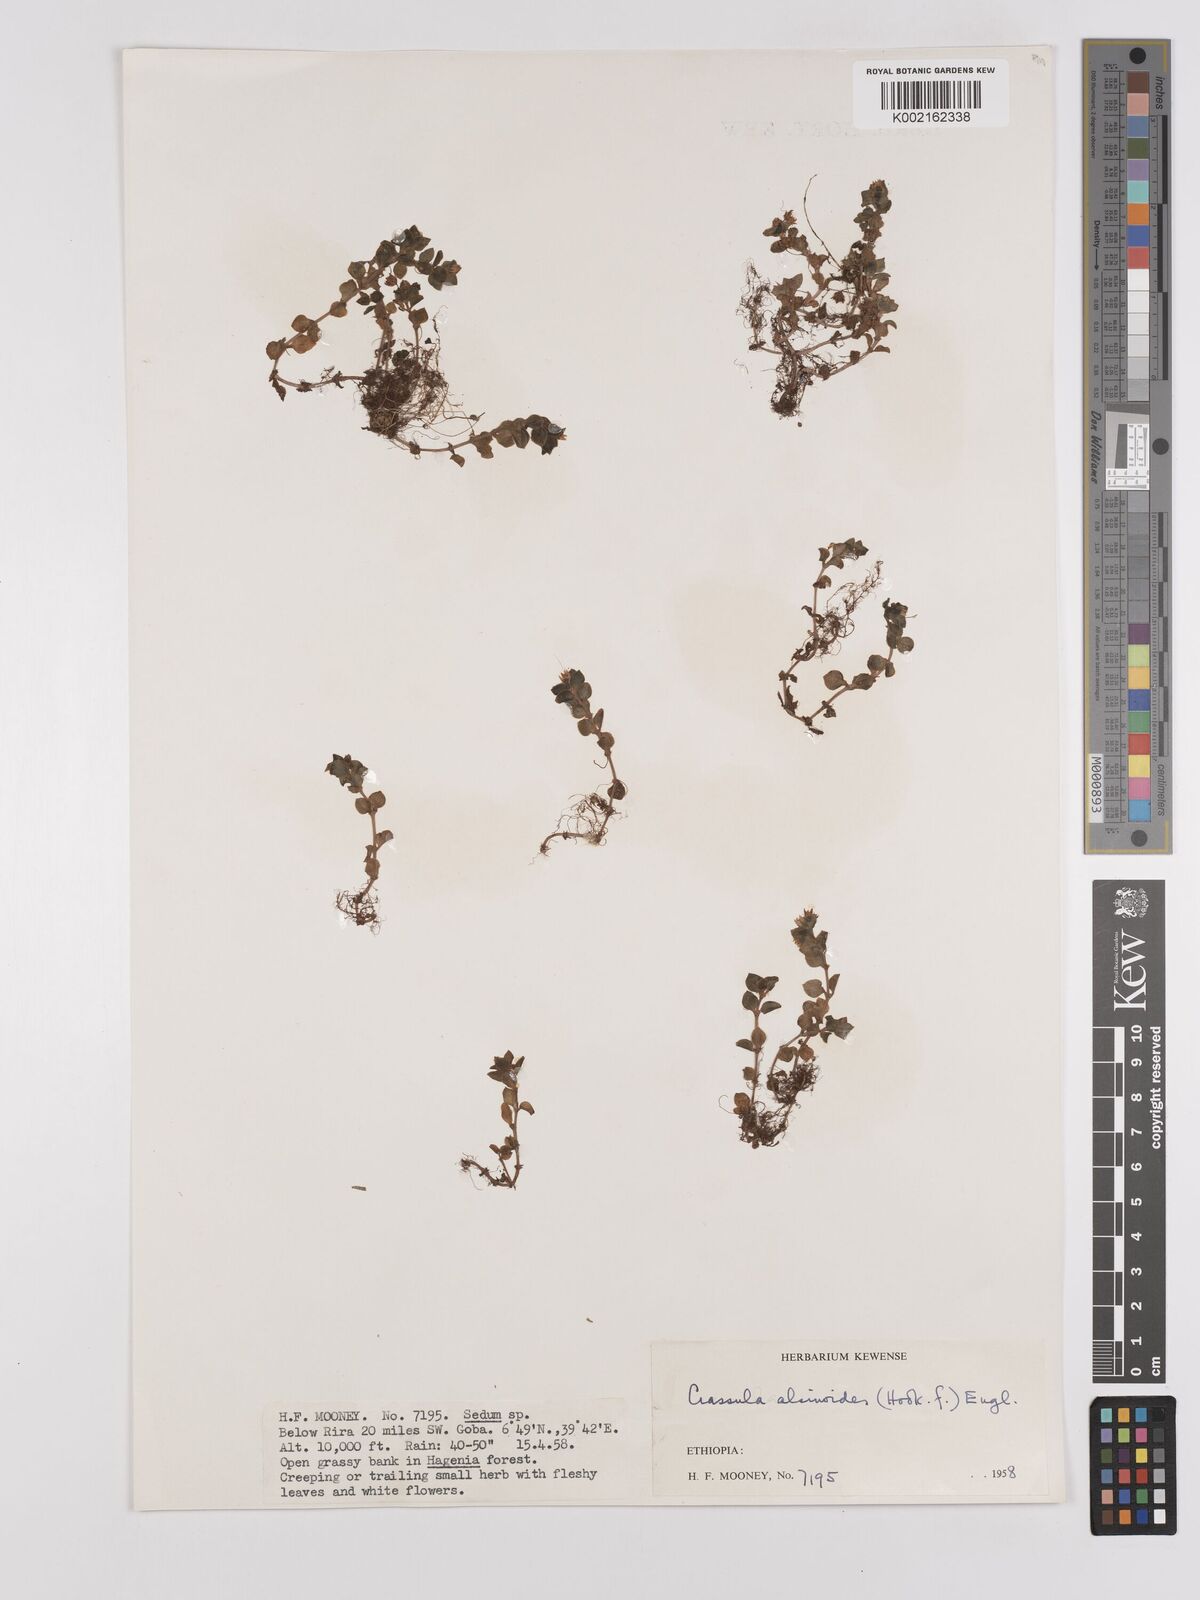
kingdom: Plantae
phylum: Tracheophyta
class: Magnoliopsida
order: Saxifragales
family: Crassulaceae
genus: Crassula
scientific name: Crassula alsinoides
